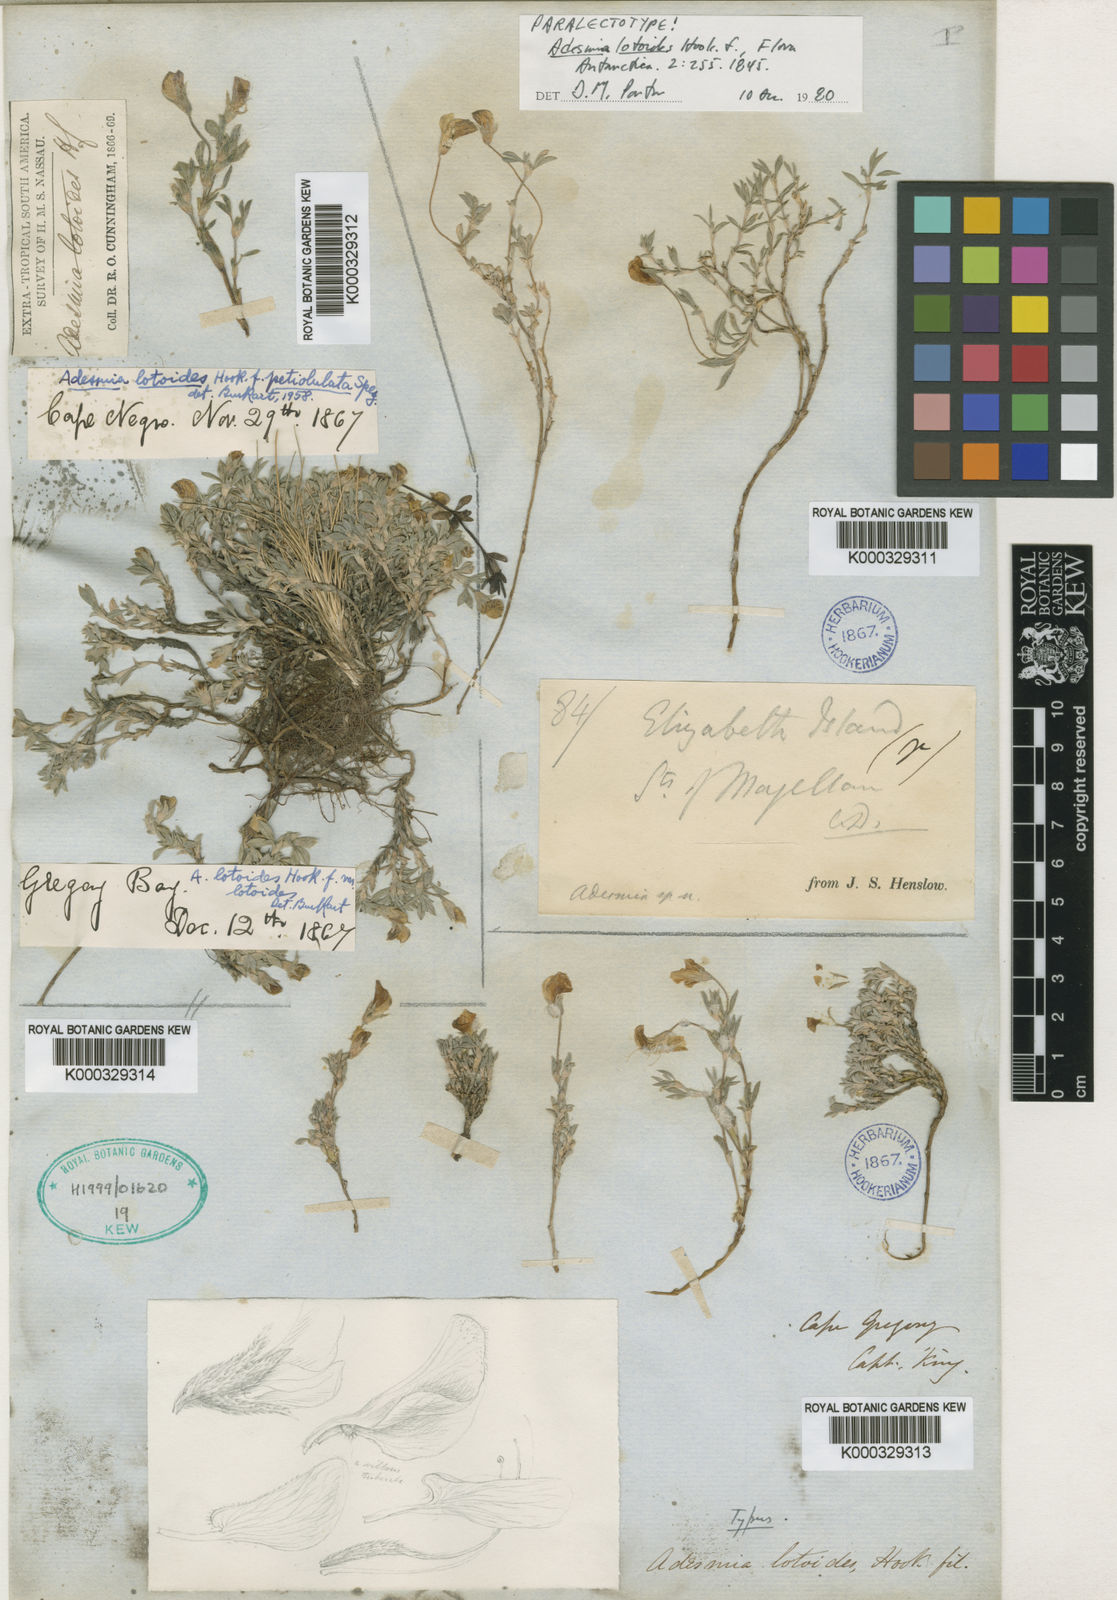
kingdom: Plantae
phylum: Tracheophyta
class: Magnoliopsida
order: Fabales
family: Fabaceae
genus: Adesmia
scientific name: Adesmia lotoides
